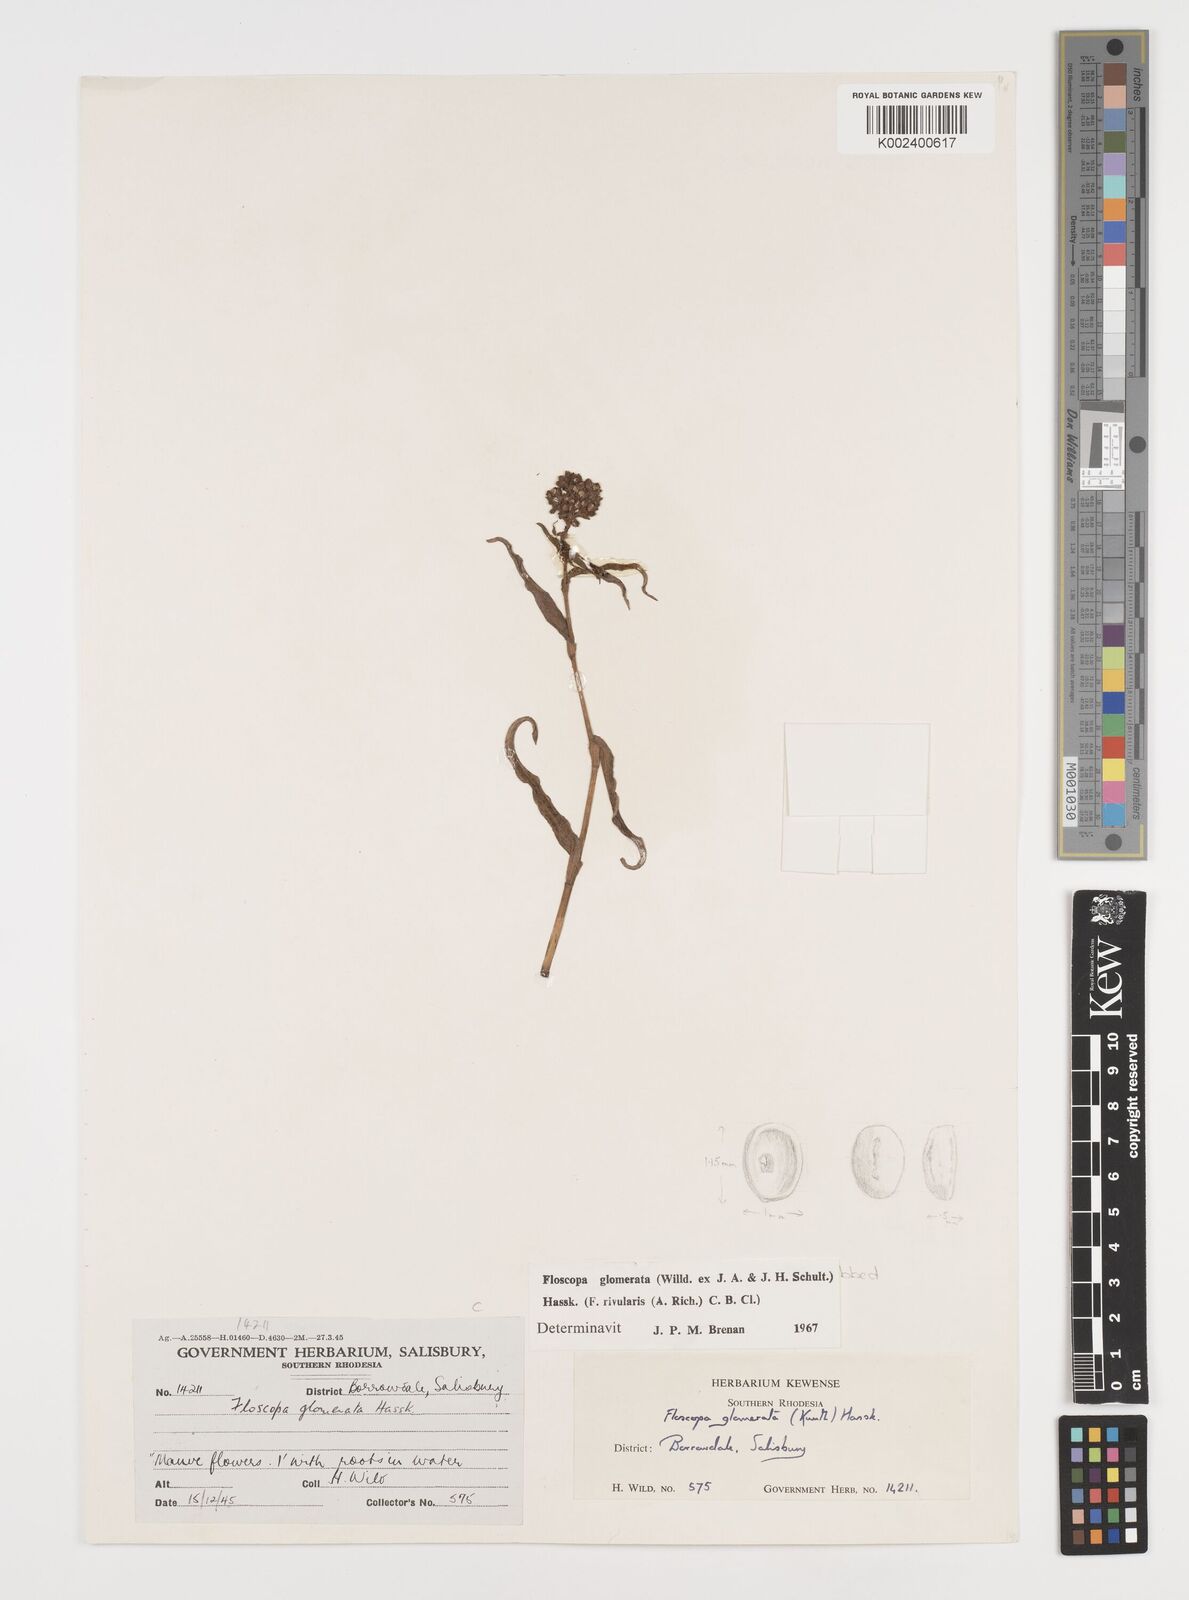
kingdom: Plantae
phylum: Tracheophyta
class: Liliopsida
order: Commelinales
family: Commelinaceae
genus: Floscopa
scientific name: Floscopa glomerata
